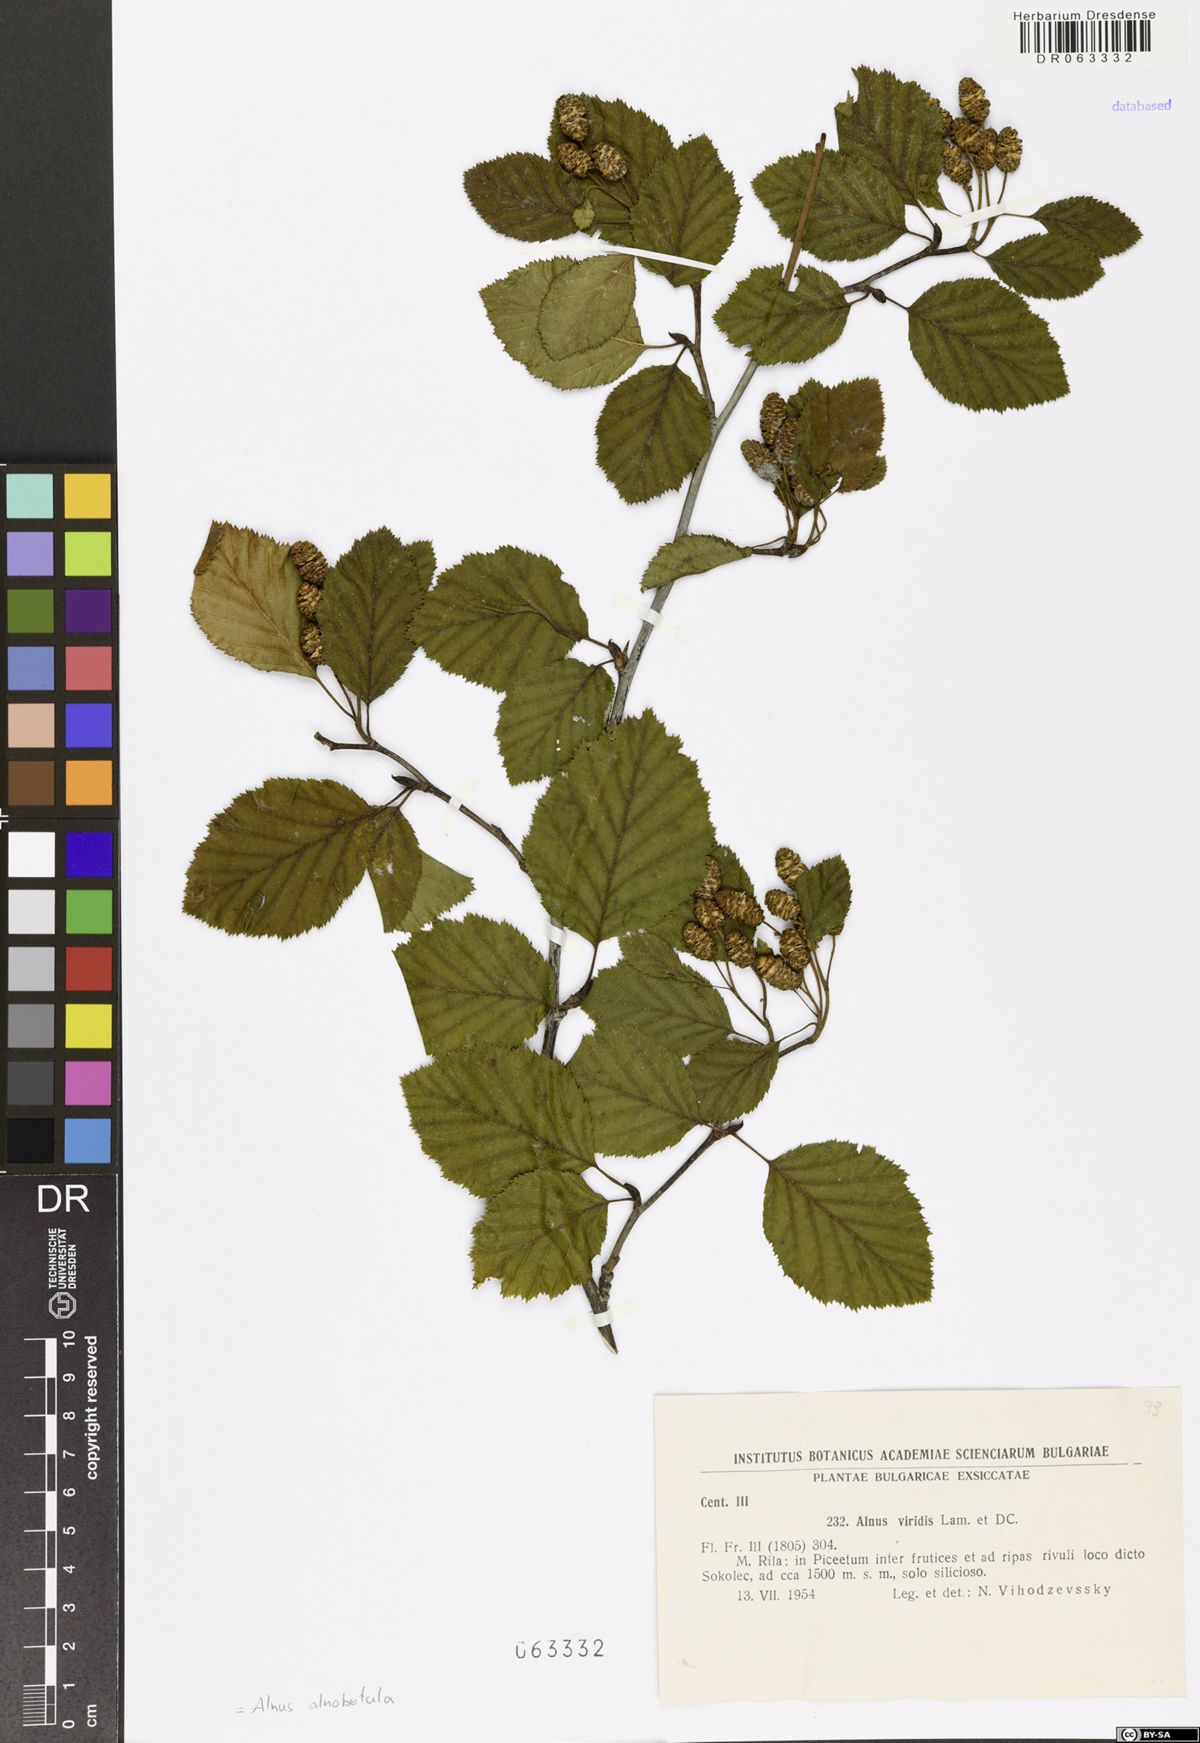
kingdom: Plantae
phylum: Tracheophyta
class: Magnoliopsida
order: Fagales
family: Betulaceae
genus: Alnus
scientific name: Alnus alnobetula
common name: Green alder
